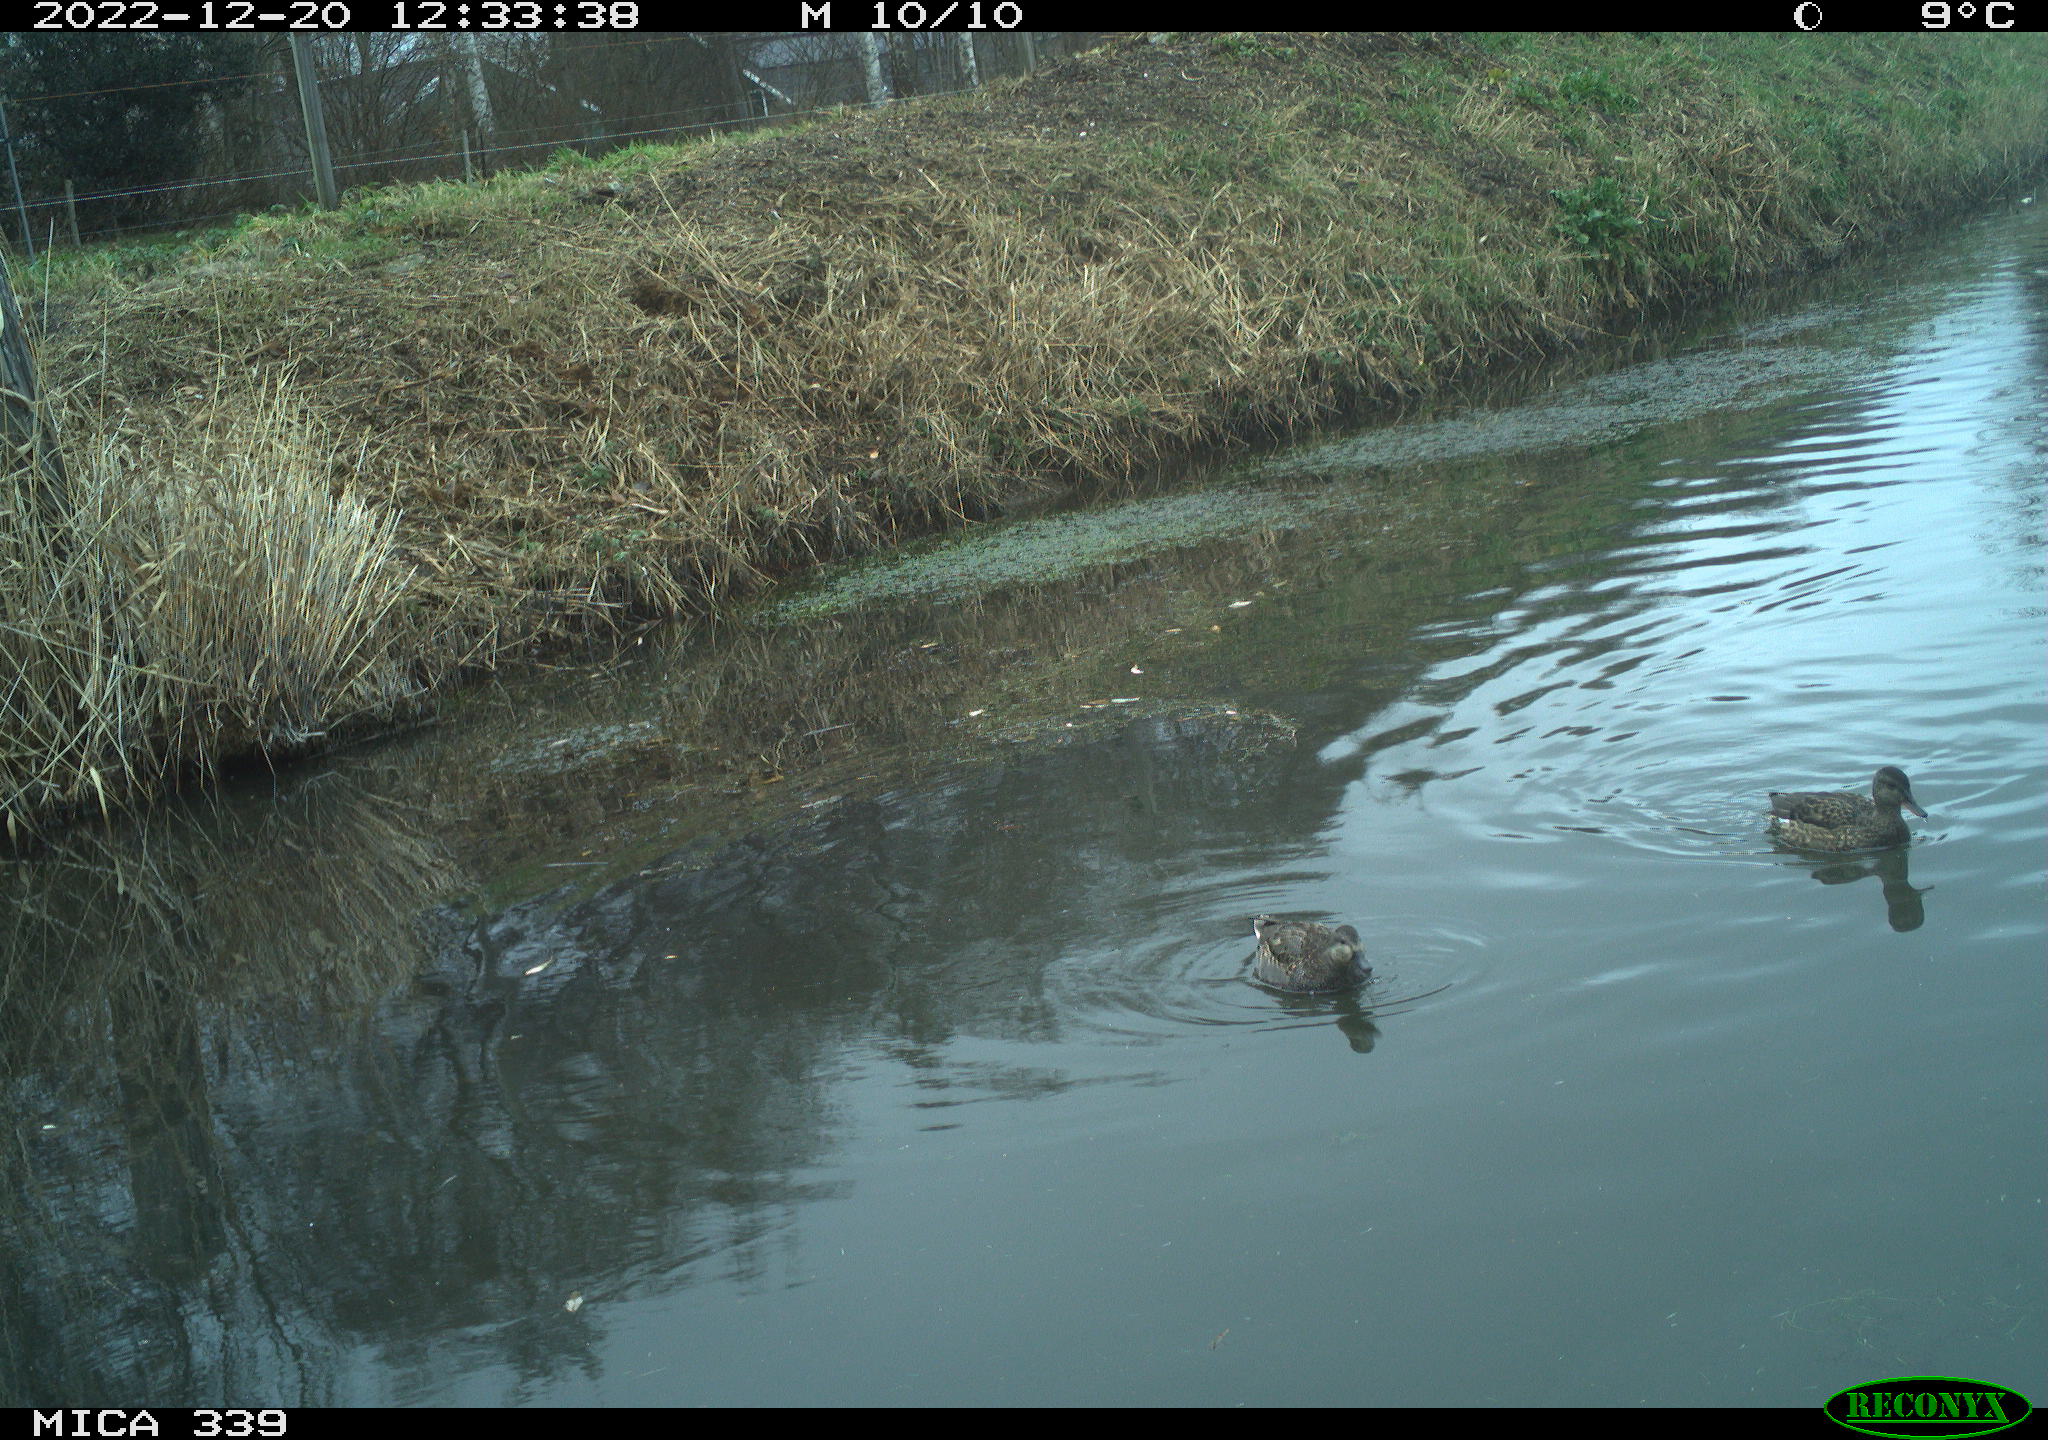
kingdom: Animalia
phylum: Chordata
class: Aves
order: Anseriformes
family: Anatidae
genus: Anas
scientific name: Anas
